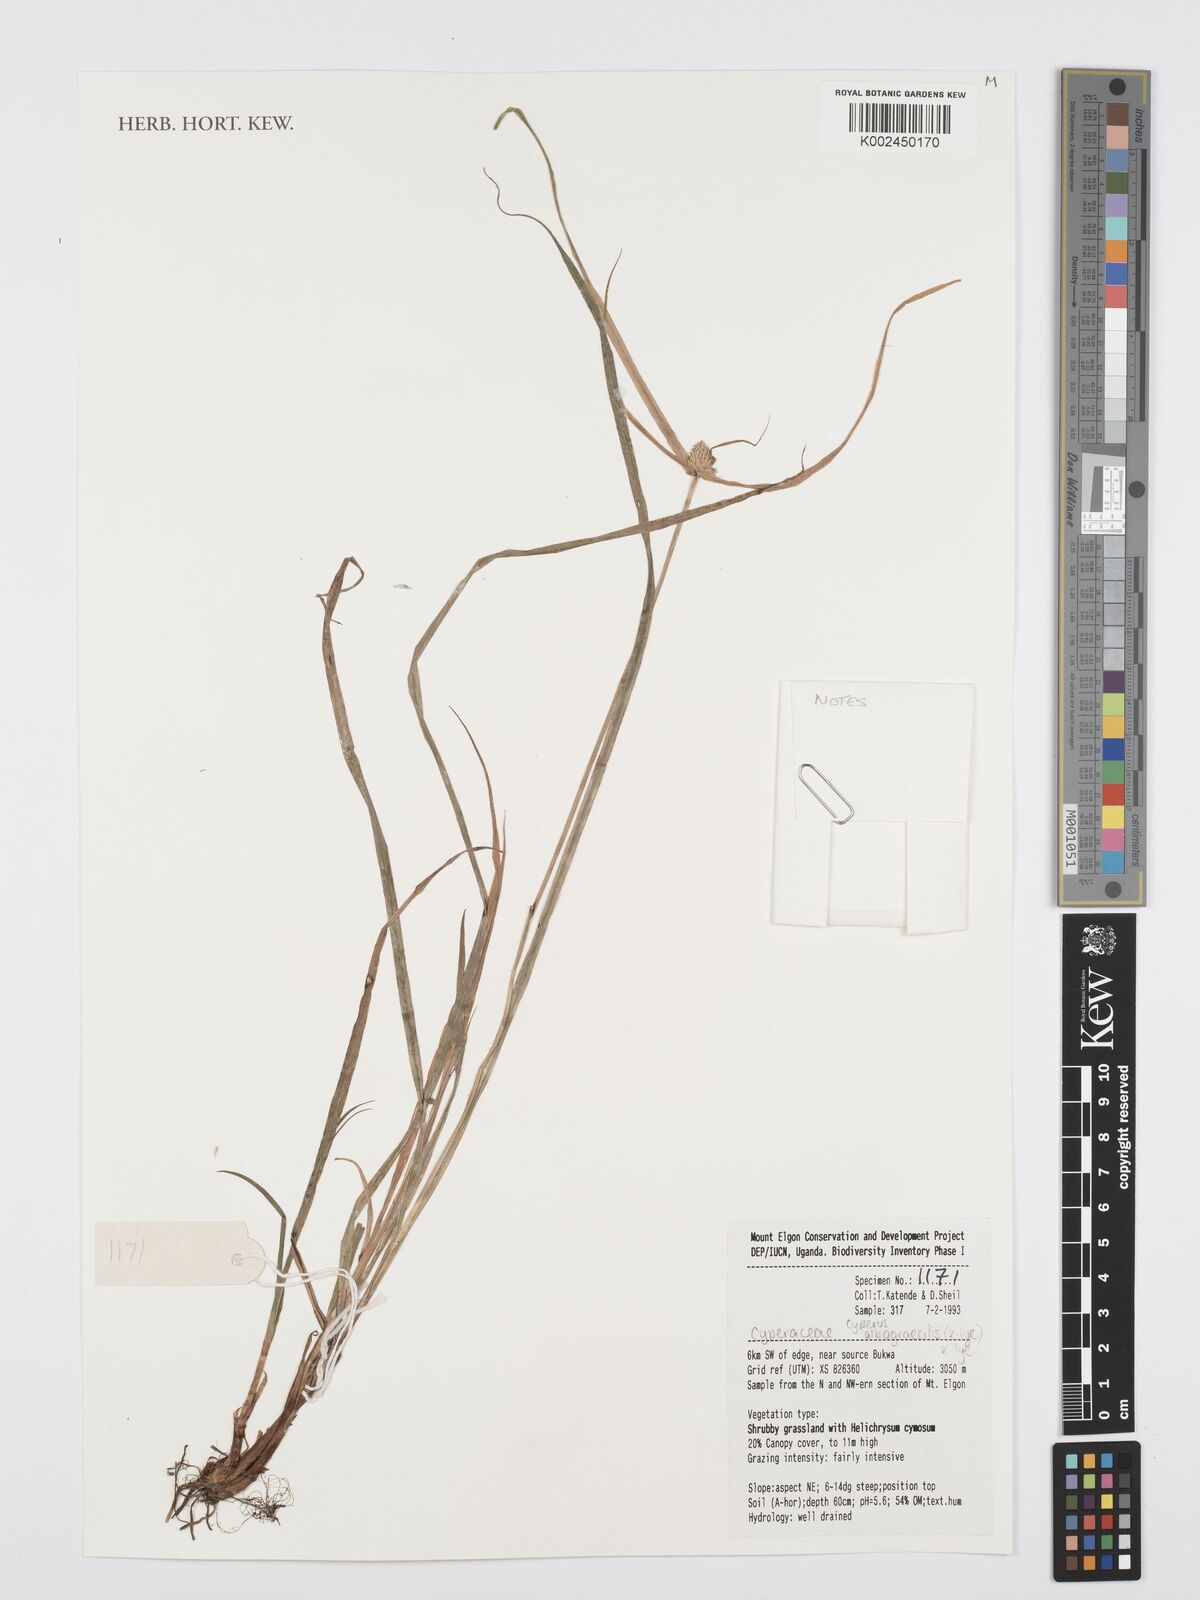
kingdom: Plantae
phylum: Tracheophyta
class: Liliopsida
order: Poales
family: Cyperaceae
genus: Cyperus
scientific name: Cyperus albogracilis
